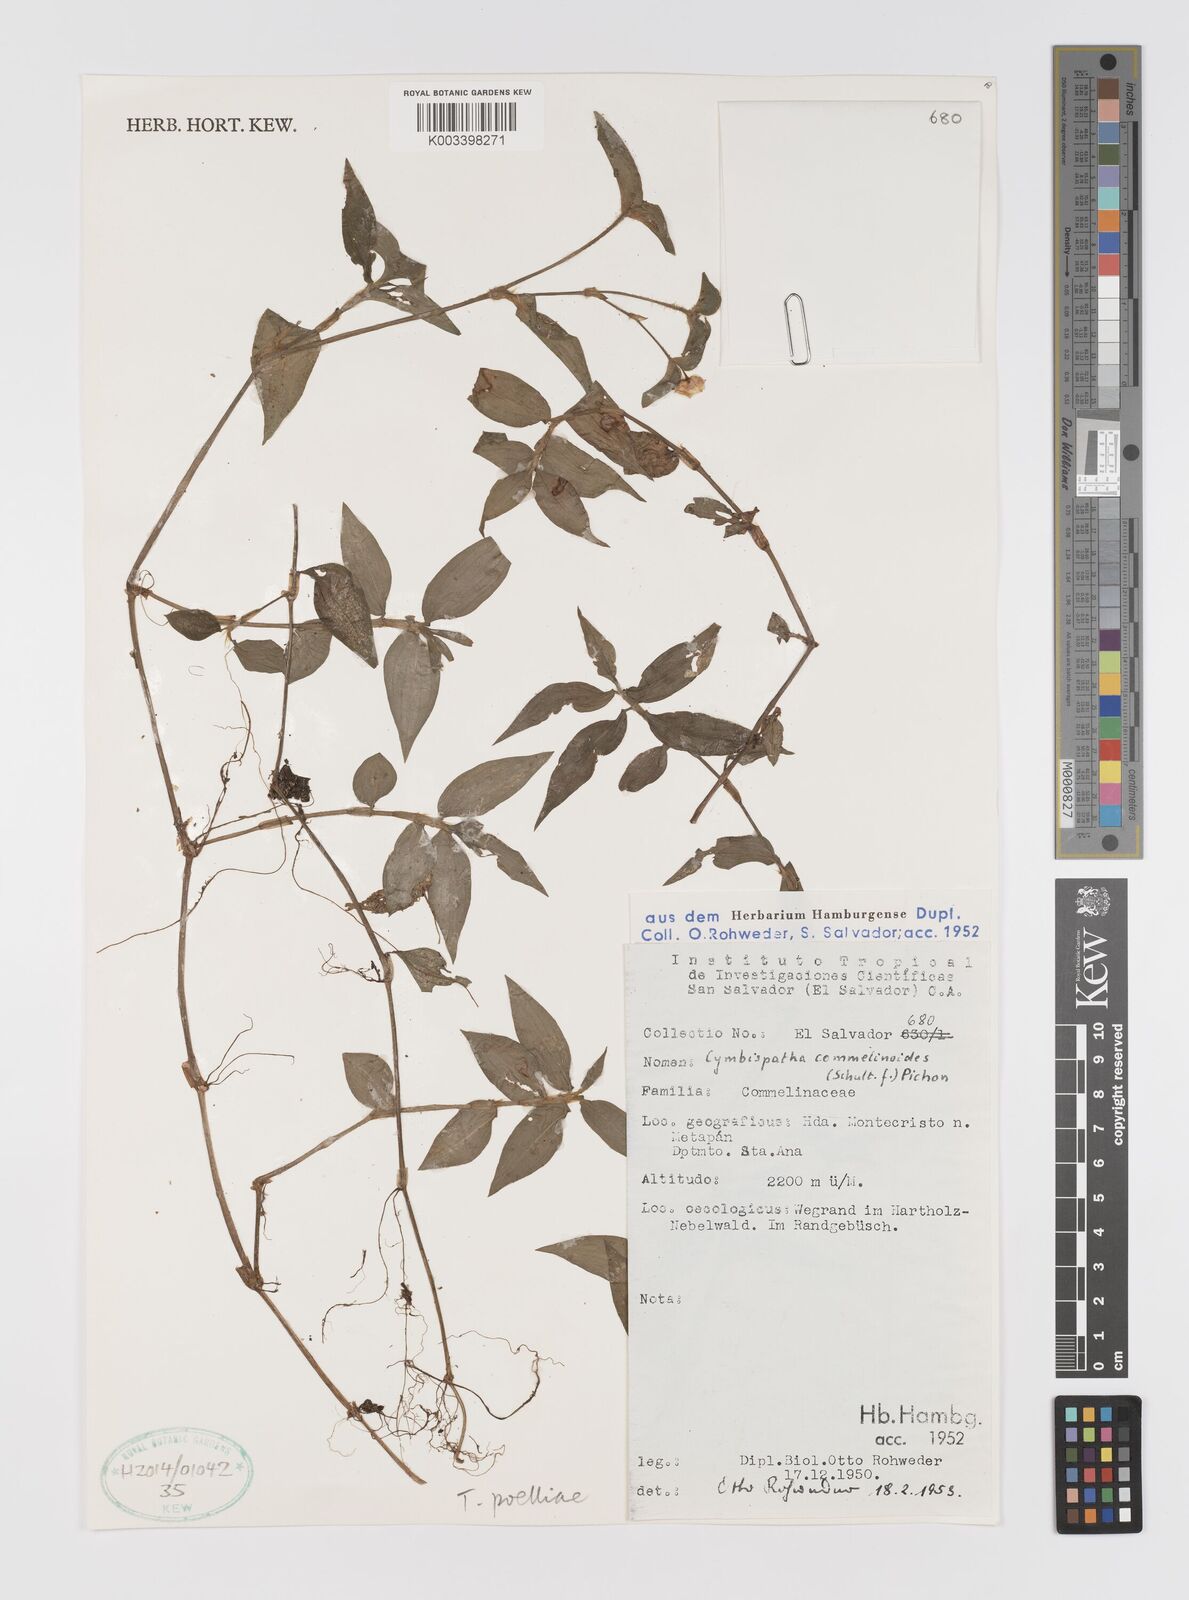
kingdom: Plantae
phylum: Tracheophyta
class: Liliopsida
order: Commelinales
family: Commelinaceae
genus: Tradescantia
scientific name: Tradescantia poelliae
